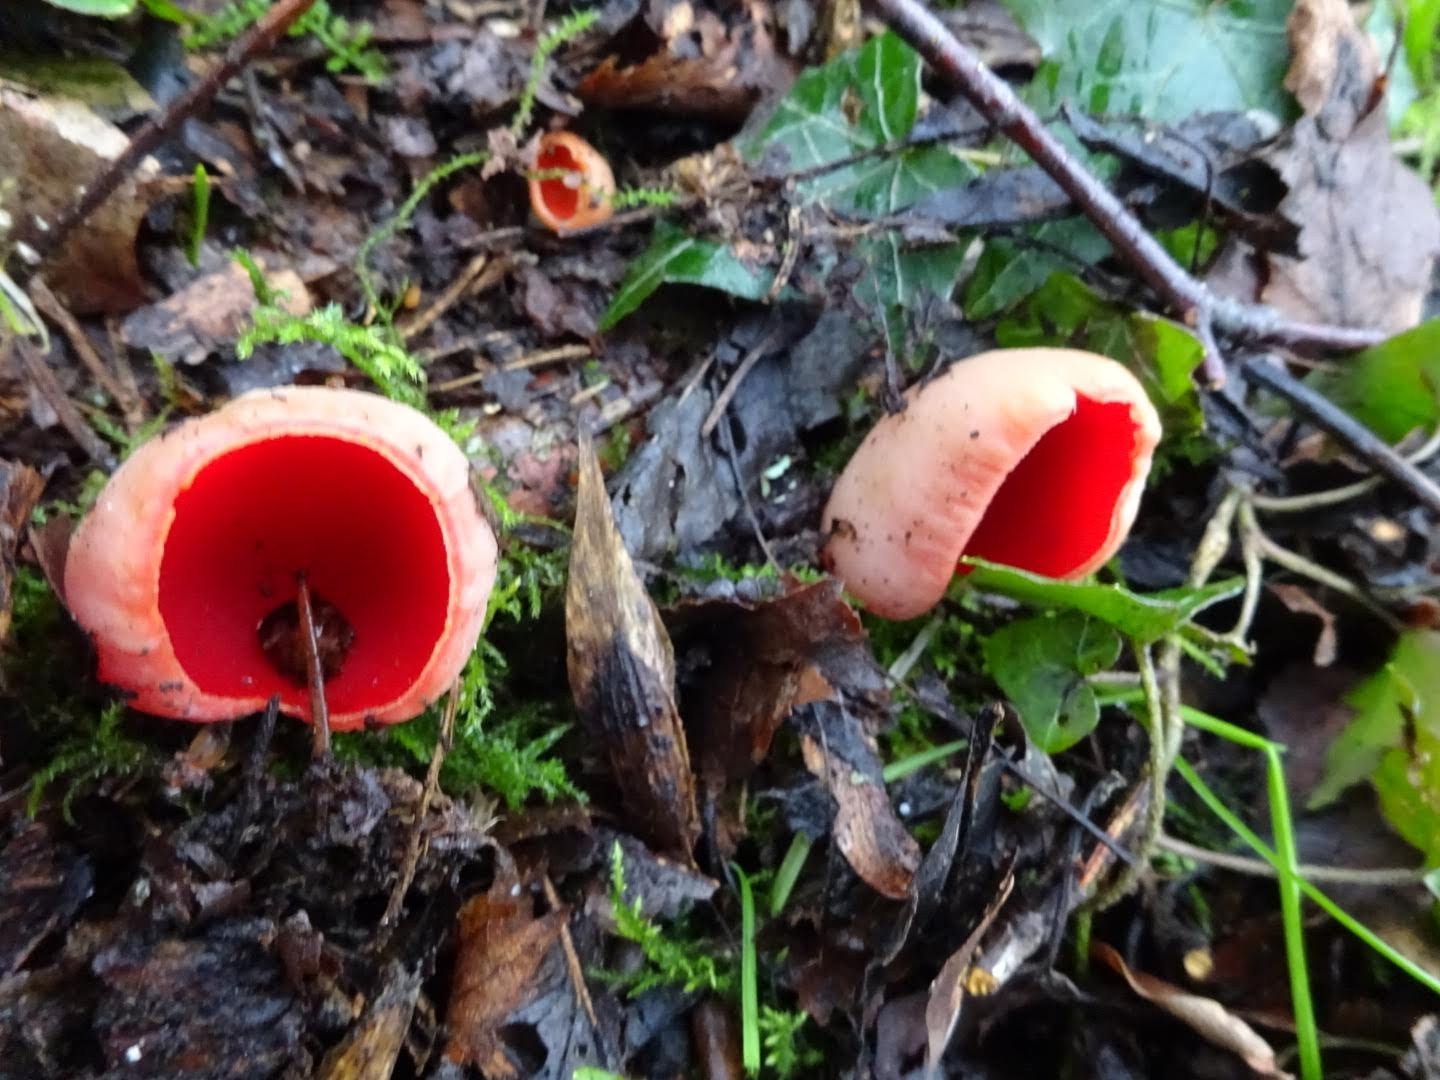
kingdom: Fungi
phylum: Ascomycota
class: Pezizomycetes
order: Pezizales
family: Sarcoscyphaceae
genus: Sarcoscypha
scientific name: Sarcoscypha austriaca
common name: krølhåret pragtbæger
